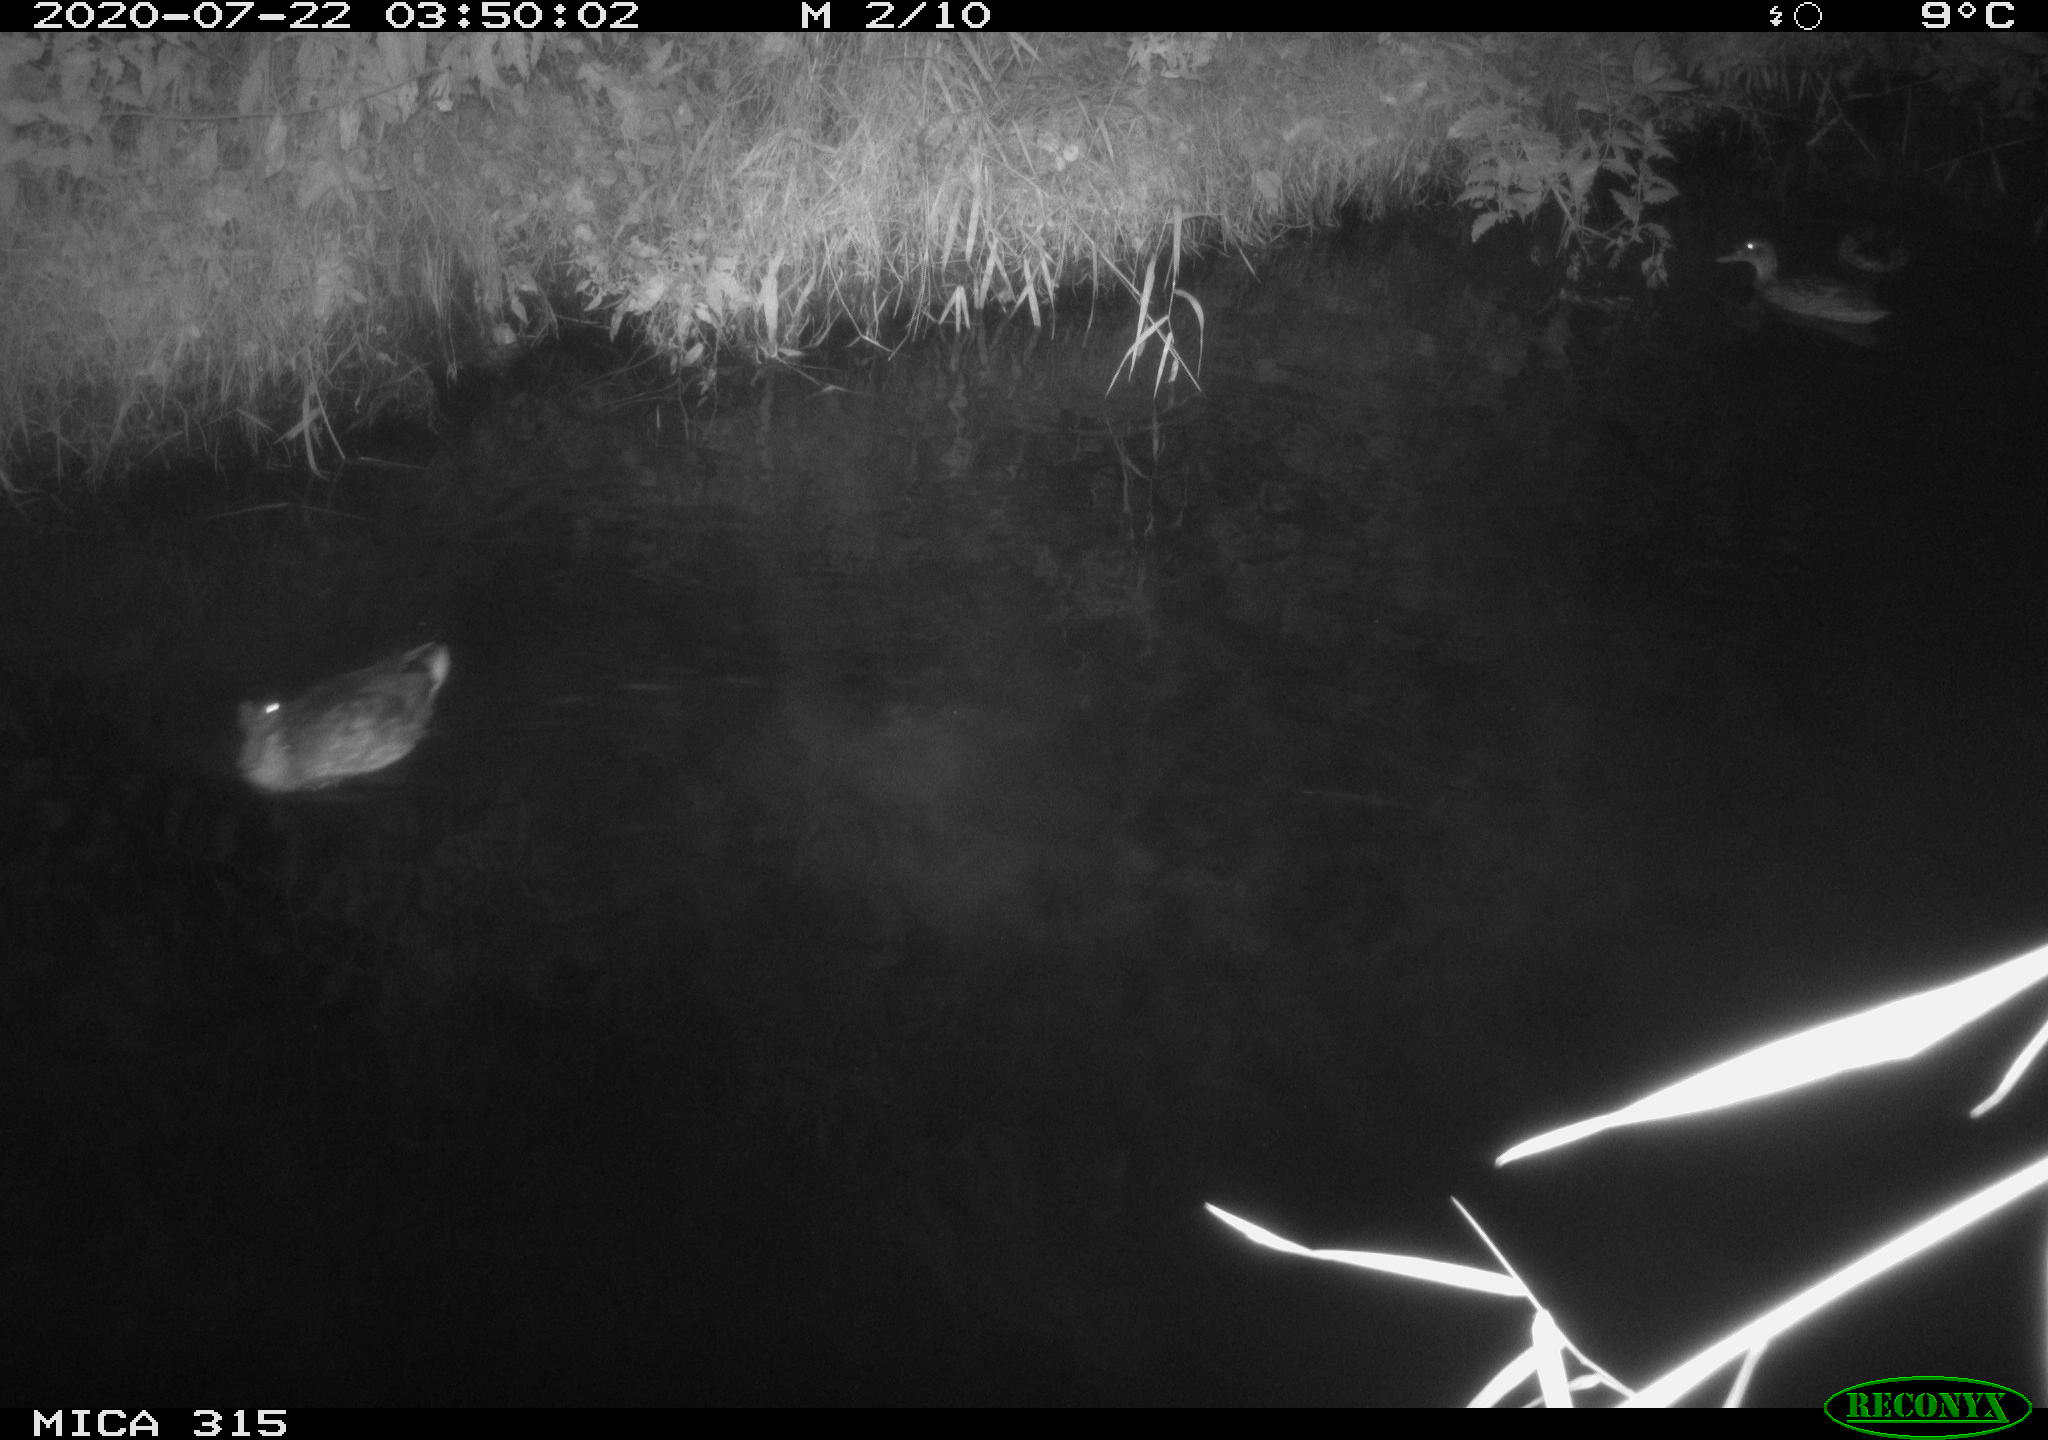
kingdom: Animalia
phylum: Chordata
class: Aves
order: Anseriformes
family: Anatidae
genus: Anas
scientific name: Anas platyrhynchos
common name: Mallard
